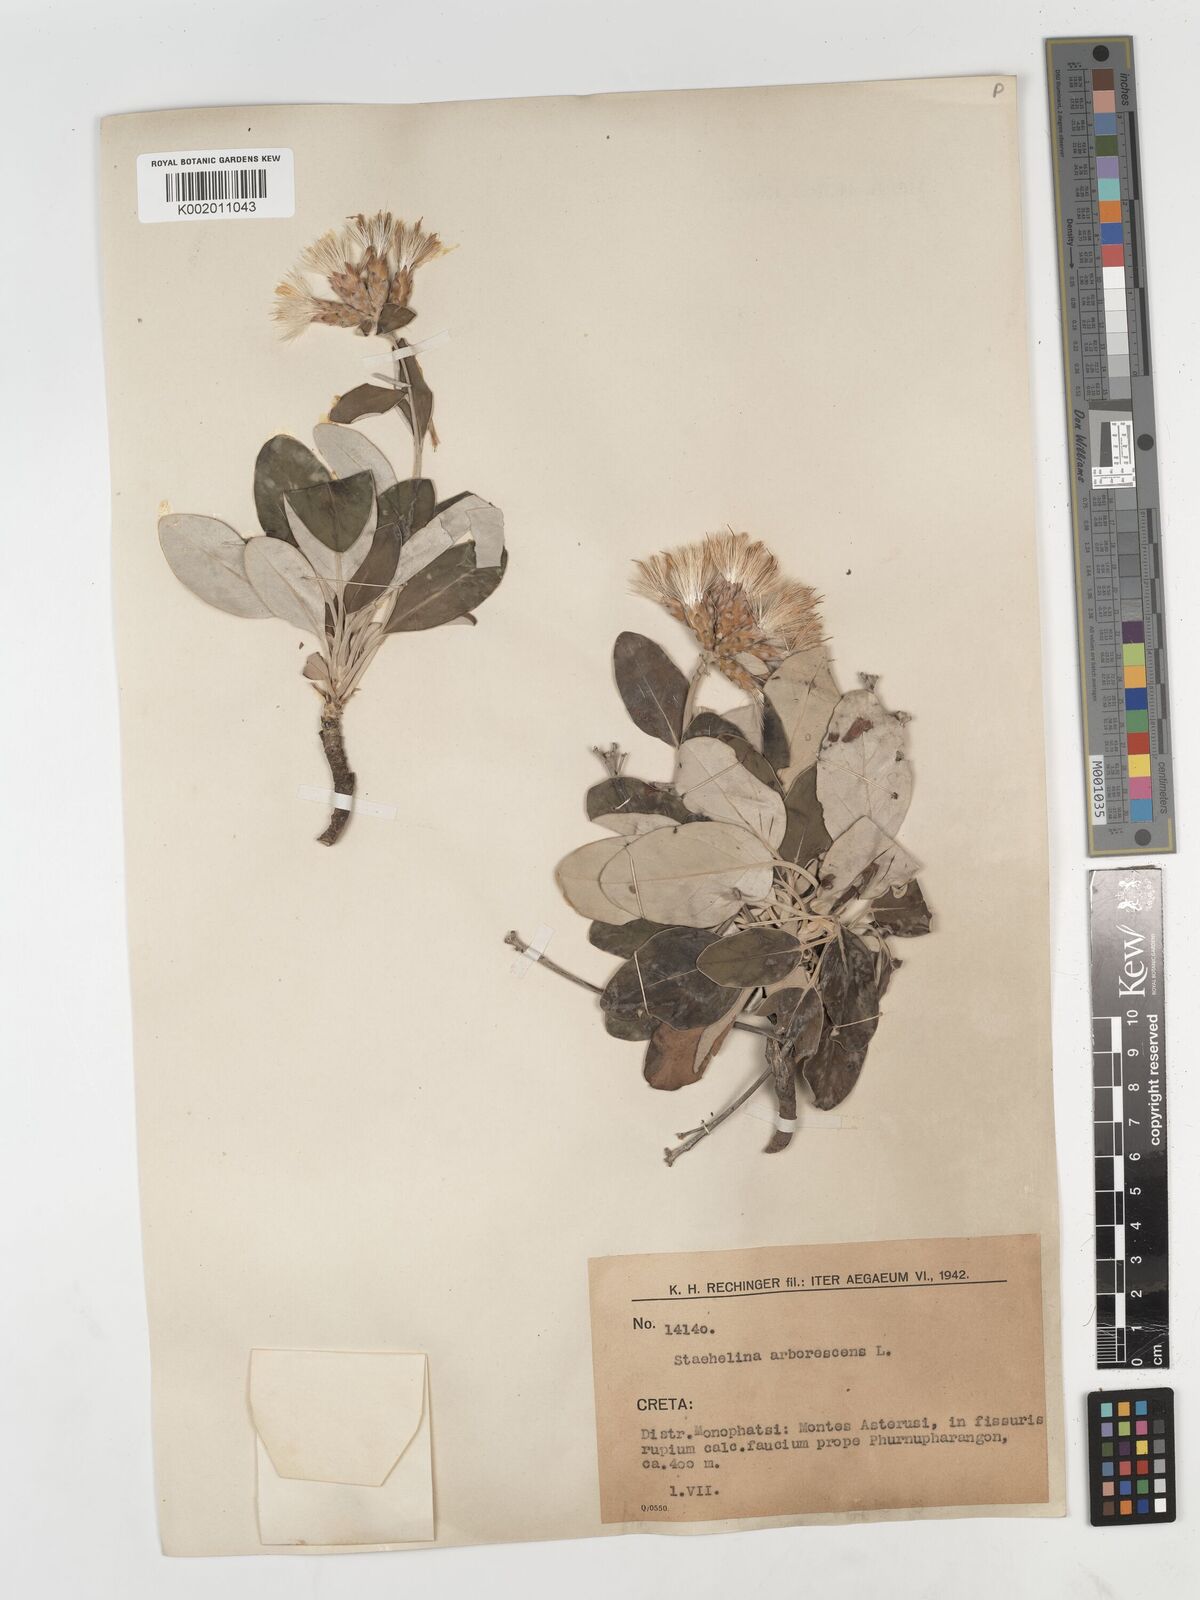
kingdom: Plantae
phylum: Tracheophyta
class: Magnoliopsida
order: Asterales
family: Asteraceae
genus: Staehelina
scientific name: Staehelina petiolata
